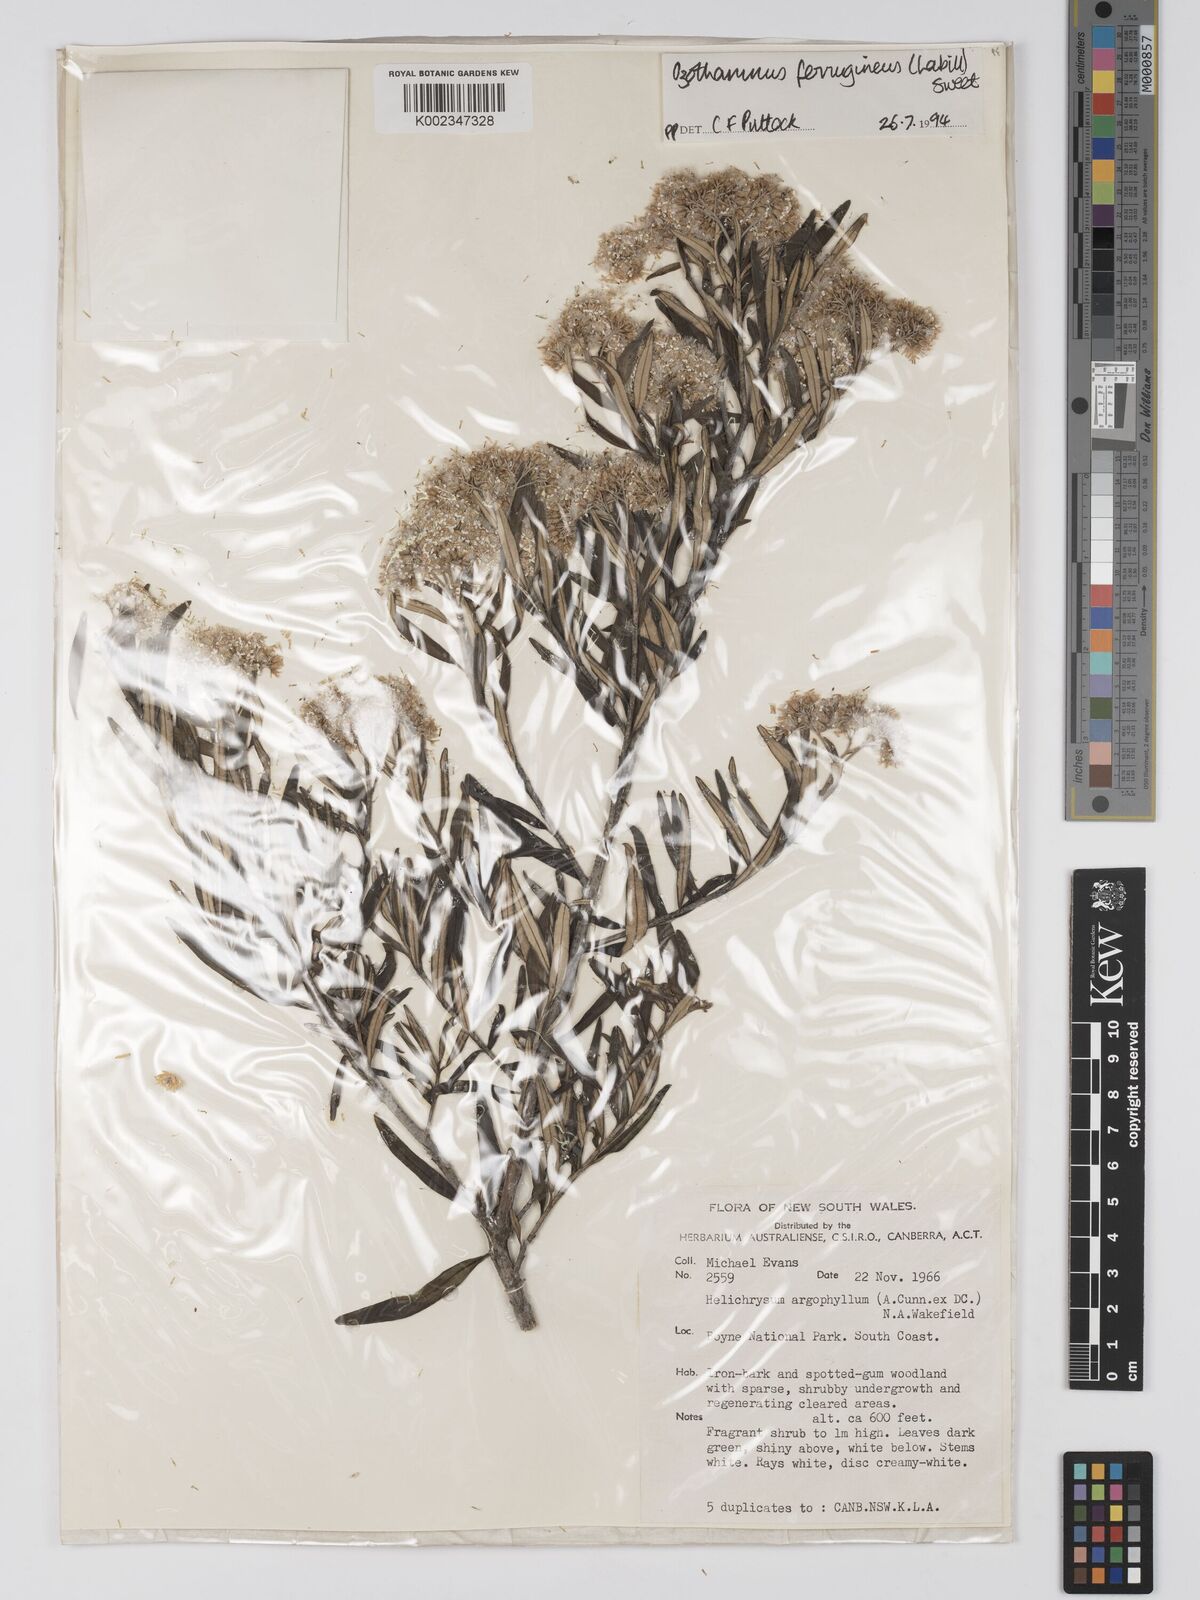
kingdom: Plantae
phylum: Tracheophyta
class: Magnoliopsida
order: Asterales
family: Asteraceae
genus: Ozothamnus
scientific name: Ozothamnus argophyllus
